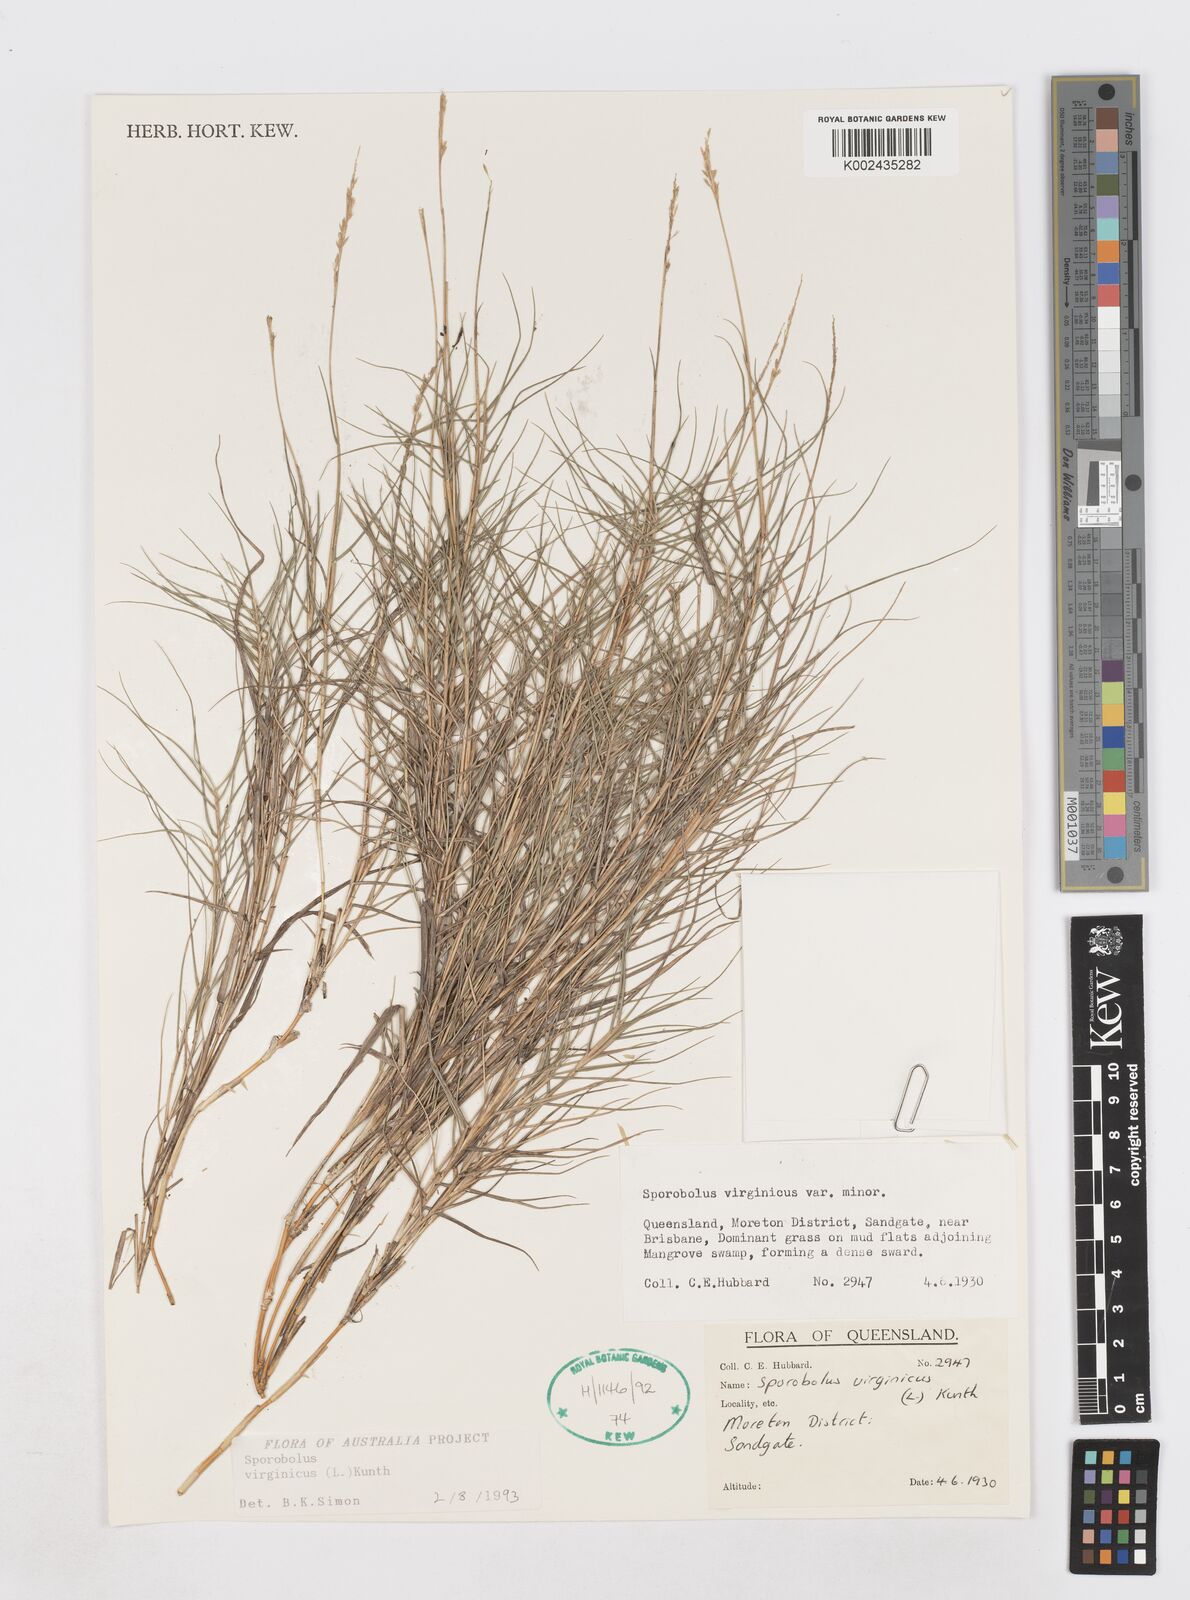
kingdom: Plantae
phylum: Tracheophyta
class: Liliopsida
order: Poales
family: Poaceae
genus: Sporobolus
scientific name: Sporobolus virginicus
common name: Beach dropseed
